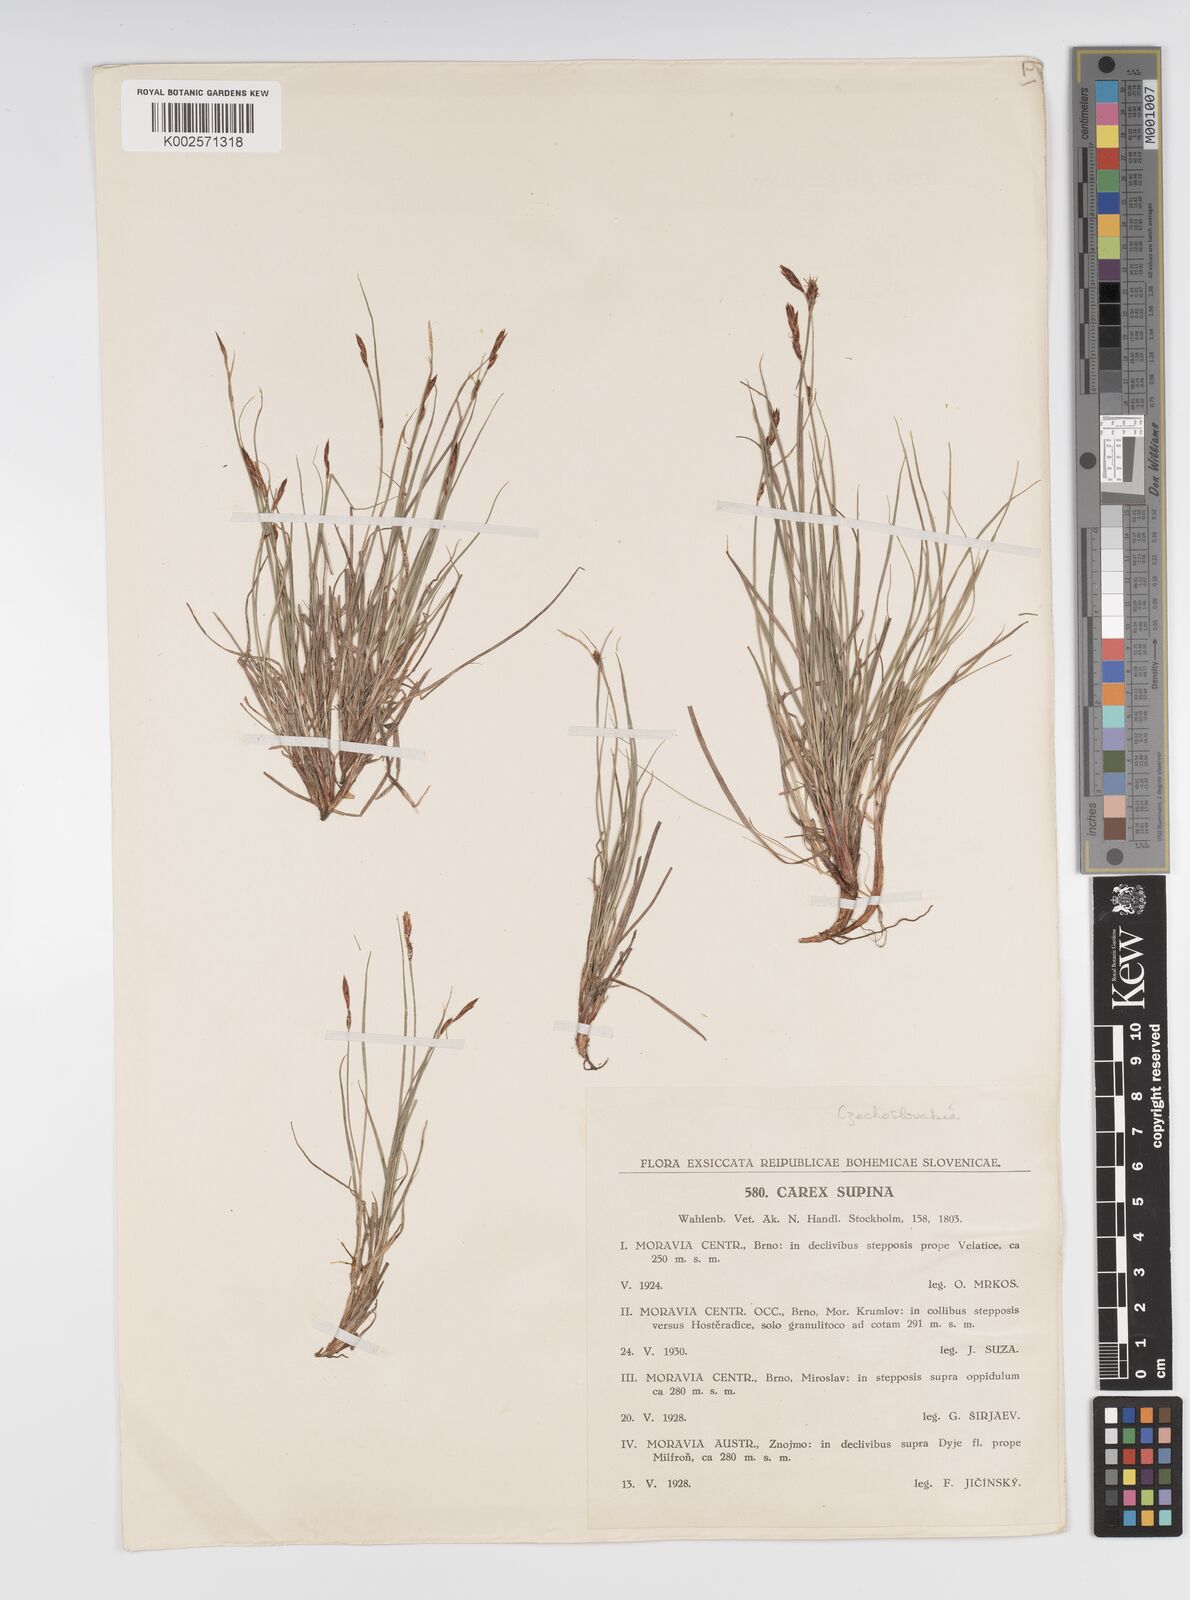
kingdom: Plantae
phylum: Tracheophyta
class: Liliopsida
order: Poales
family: Cyperaceae
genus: Carex
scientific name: Carex supina
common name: Lying-back sedge
